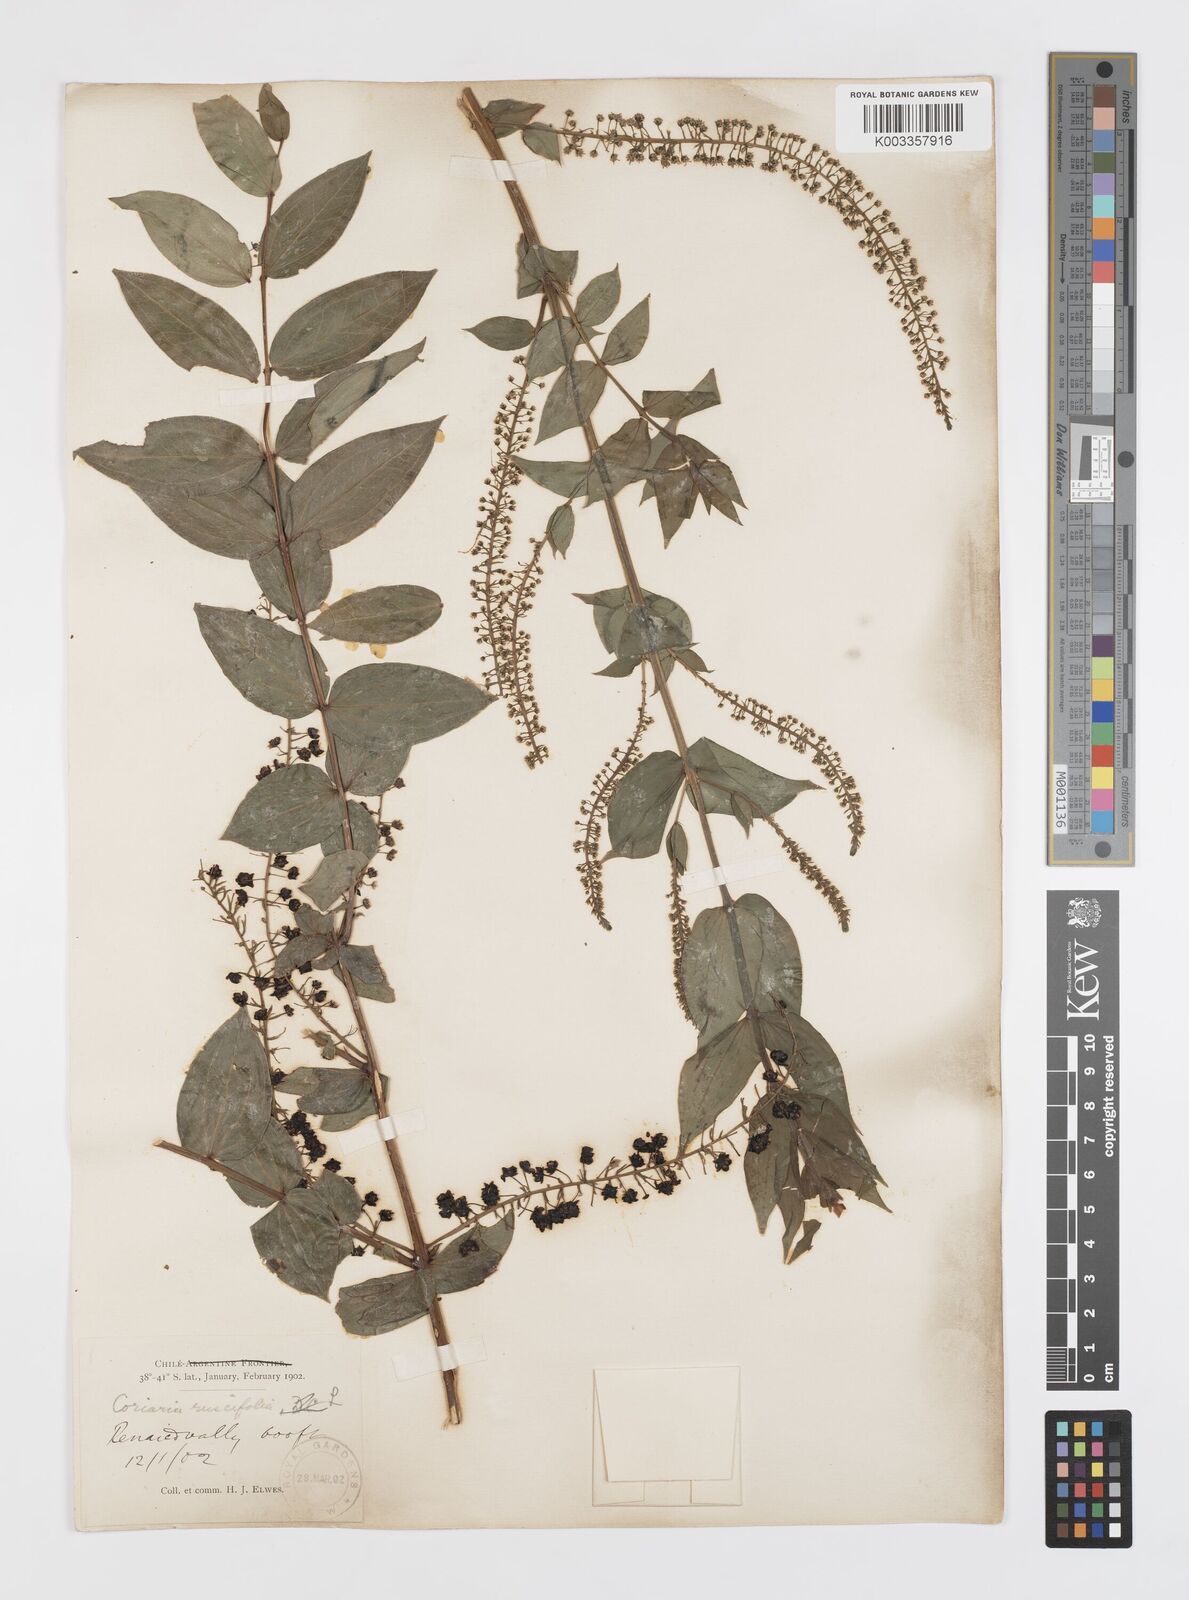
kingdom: Plantae
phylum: Tracheophyta
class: Magnoliopsida
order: Cucurbitales
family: Coriariaceae
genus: Coriaria
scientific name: Coriaria ruscifolia
